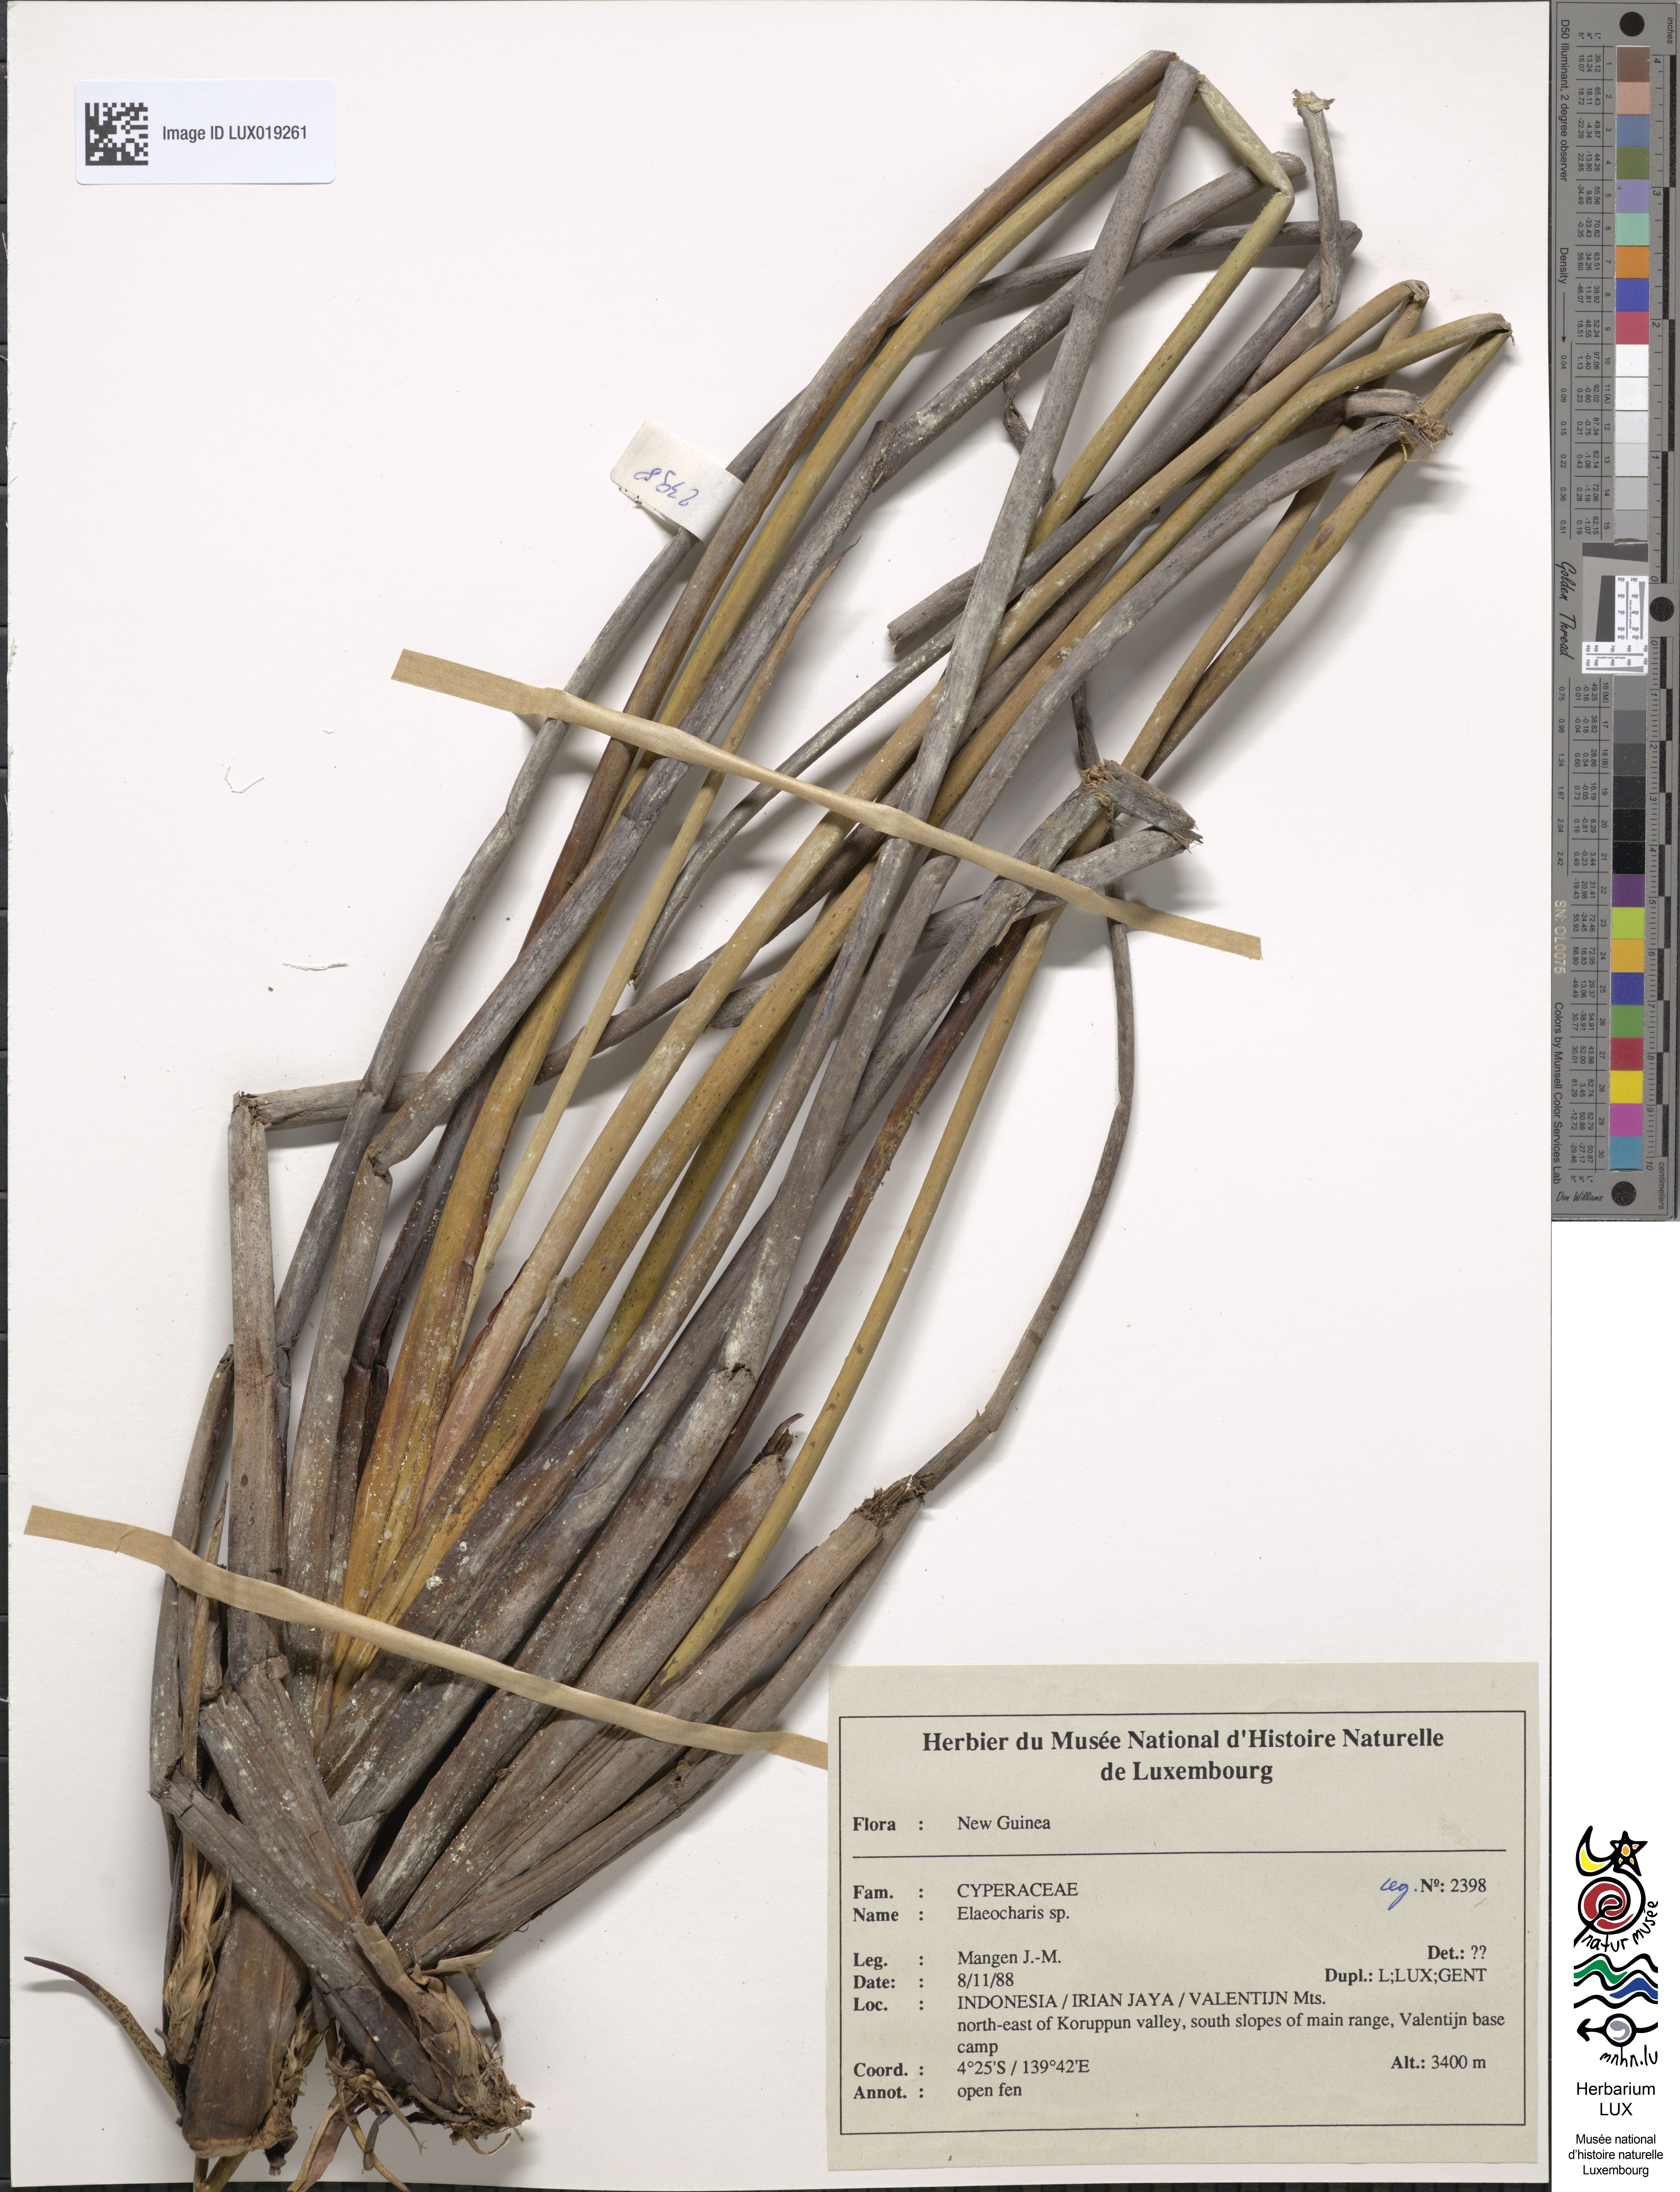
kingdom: Plantae
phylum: Tracheophyta
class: Liliopsida
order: Poales
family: Cyperaceae
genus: Eleocharis
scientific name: Eleocharis
